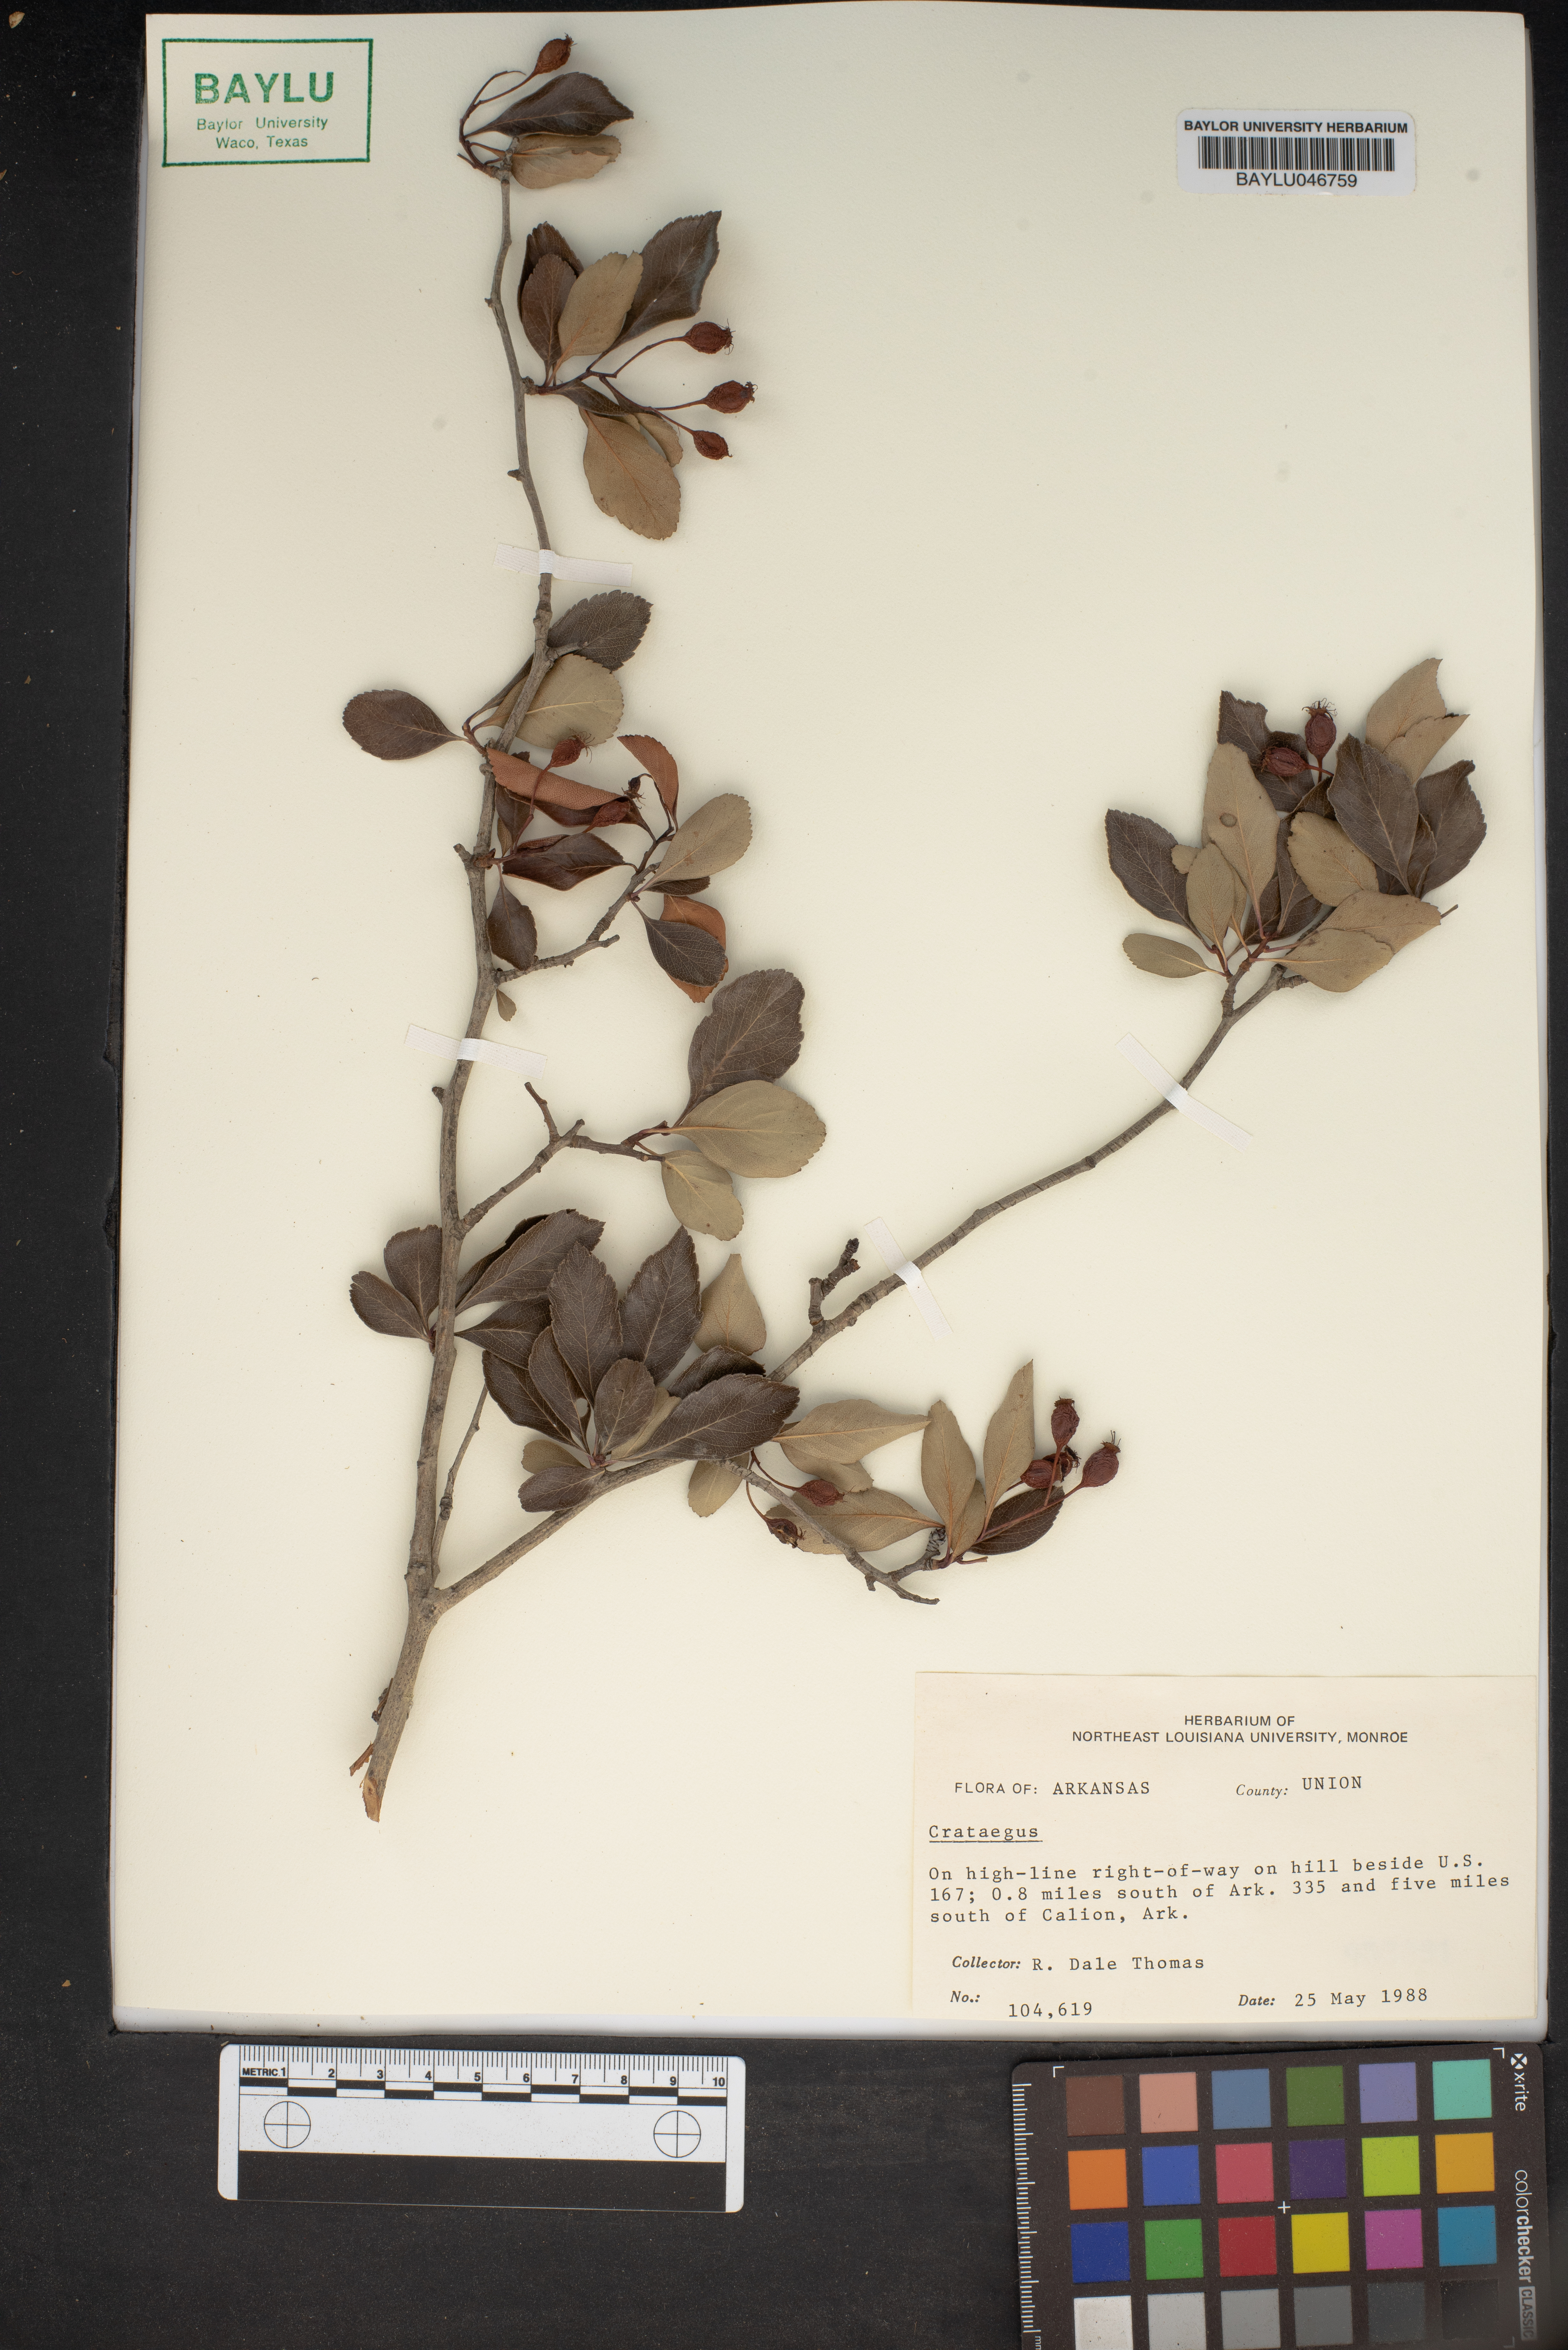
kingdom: Plantae
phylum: Tracheophyta
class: Magnoliopsida
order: Rosales
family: Rosaceae
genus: Crataegus
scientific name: Crataegus
